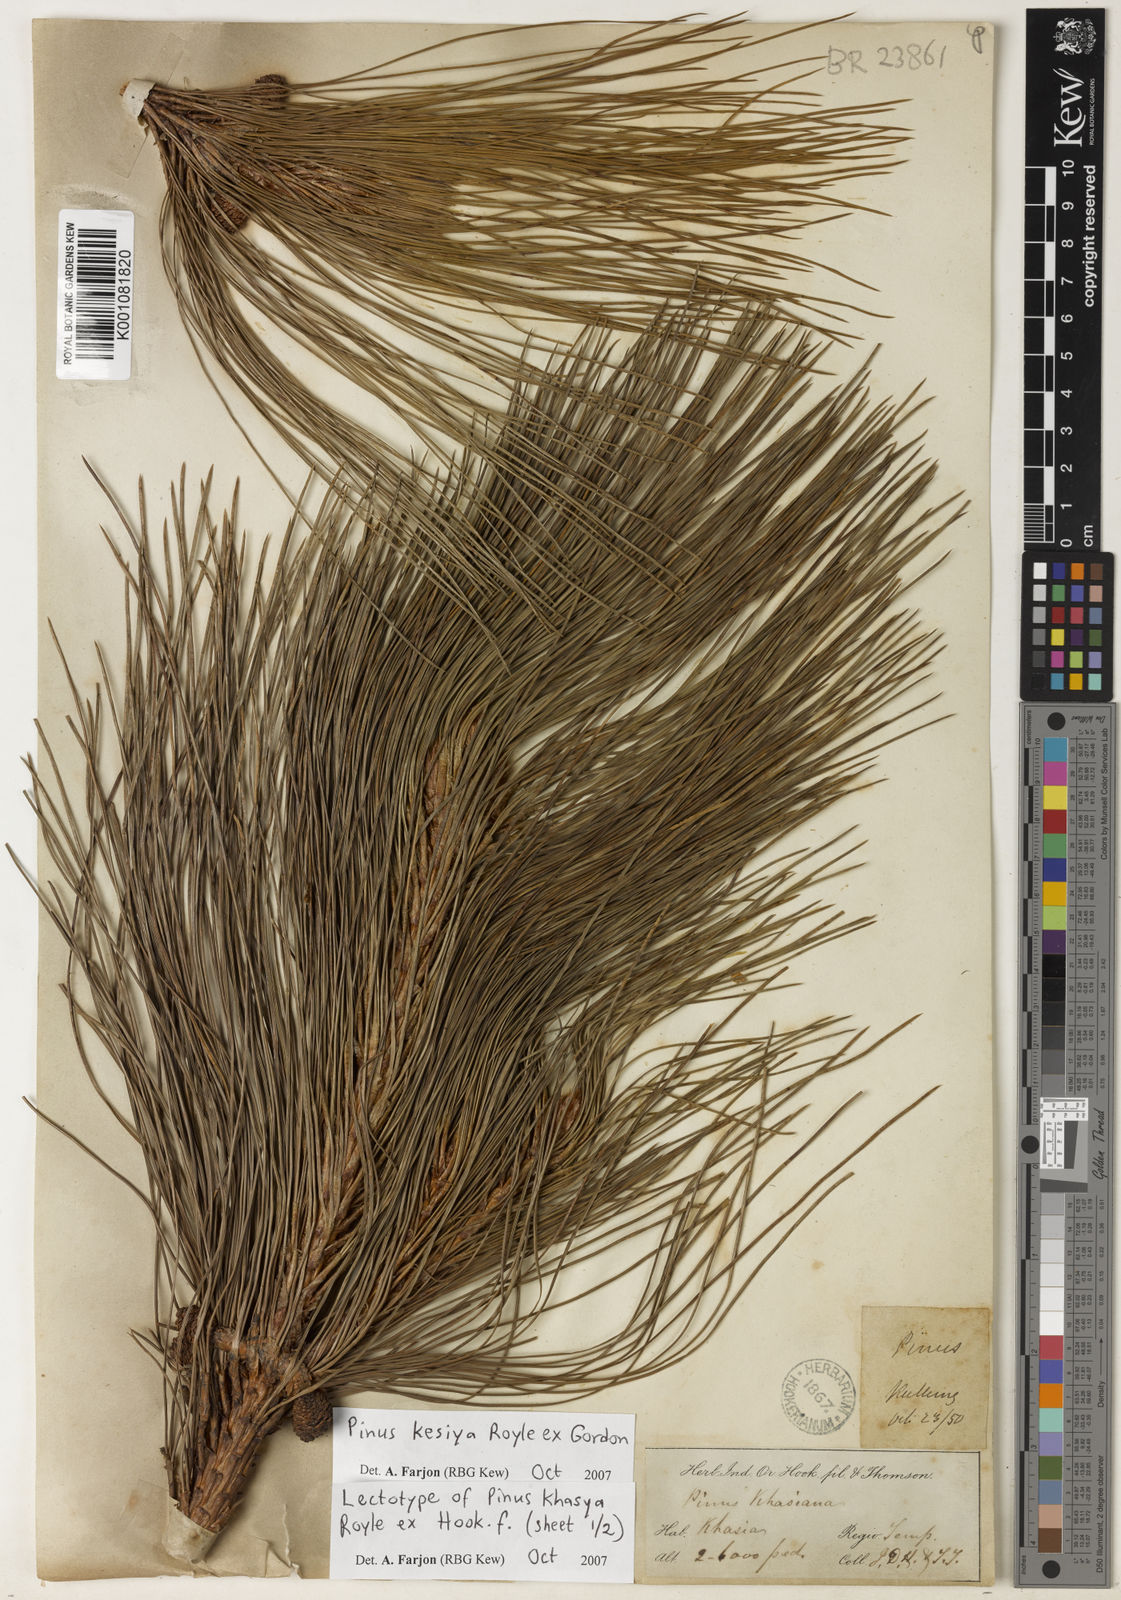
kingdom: Plantae
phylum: Tracheophyta
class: Pinopsida
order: Pinales
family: Pinaceae
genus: Pinus
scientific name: Pinus kesiya
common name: Benguet pine
